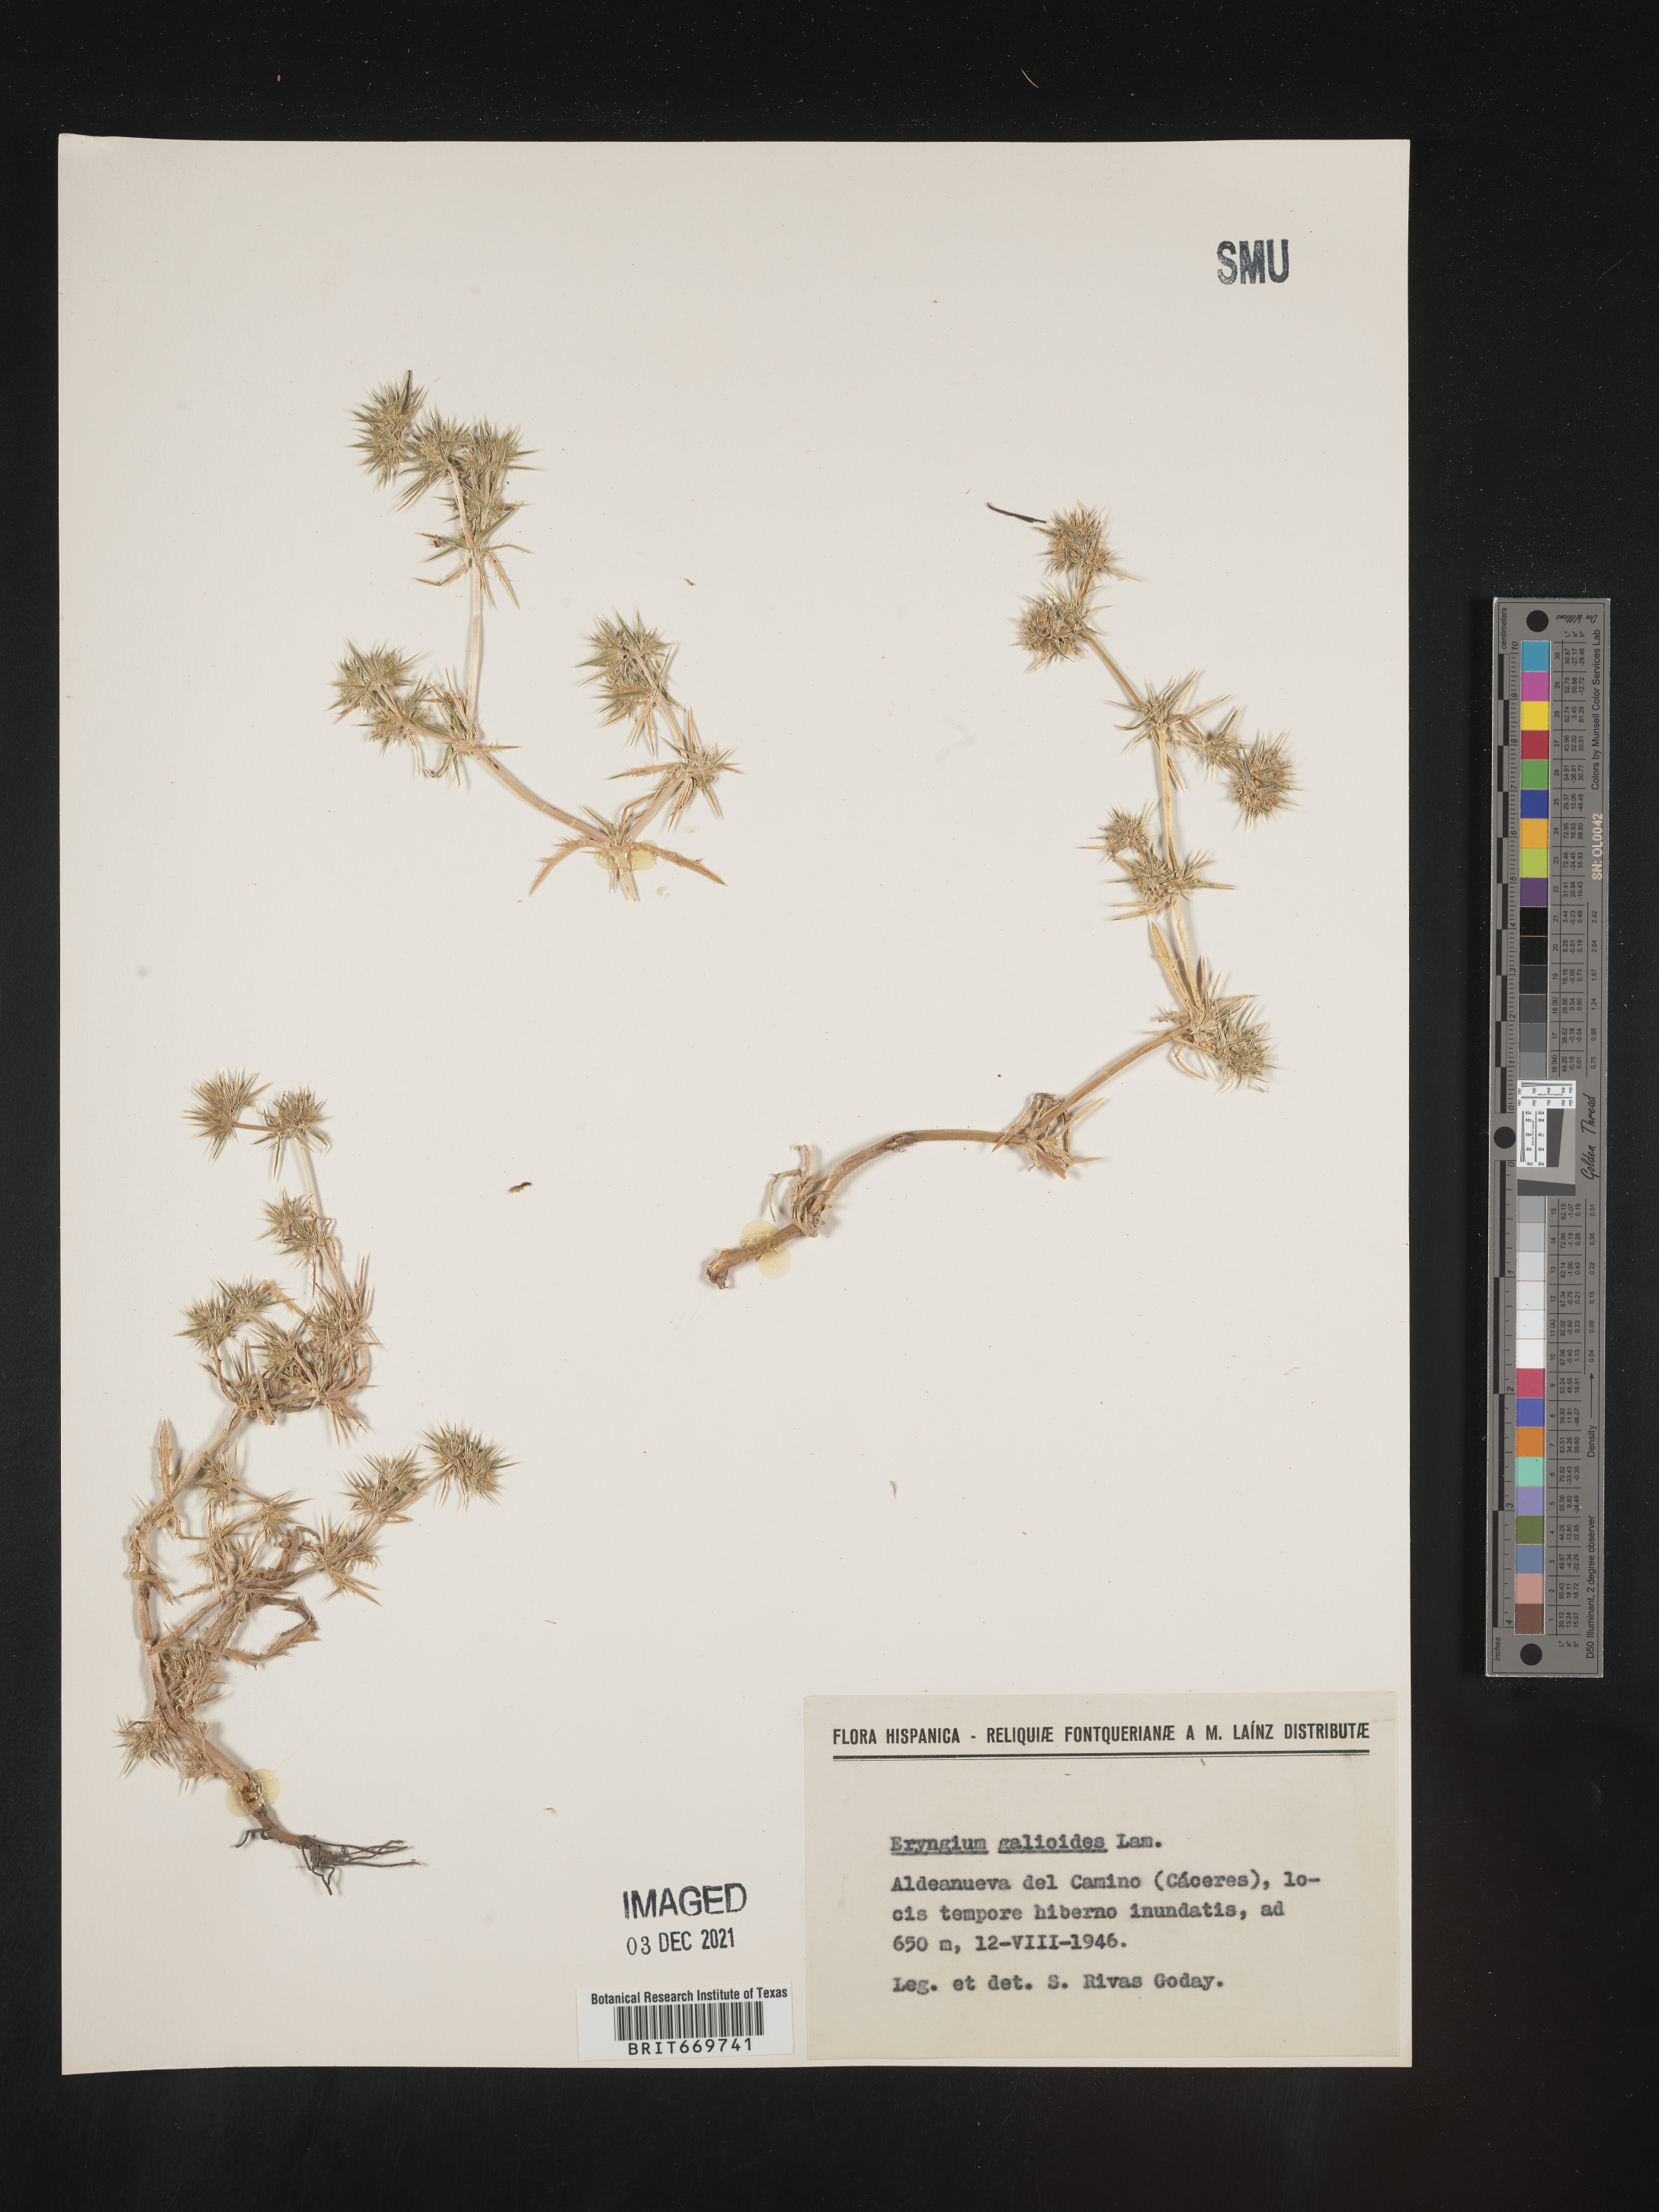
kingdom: Plantae
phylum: Tracheophyta
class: Magnoliopsida
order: Apiales
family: Apiaceae
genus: Eryngium
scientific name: Eryngium
